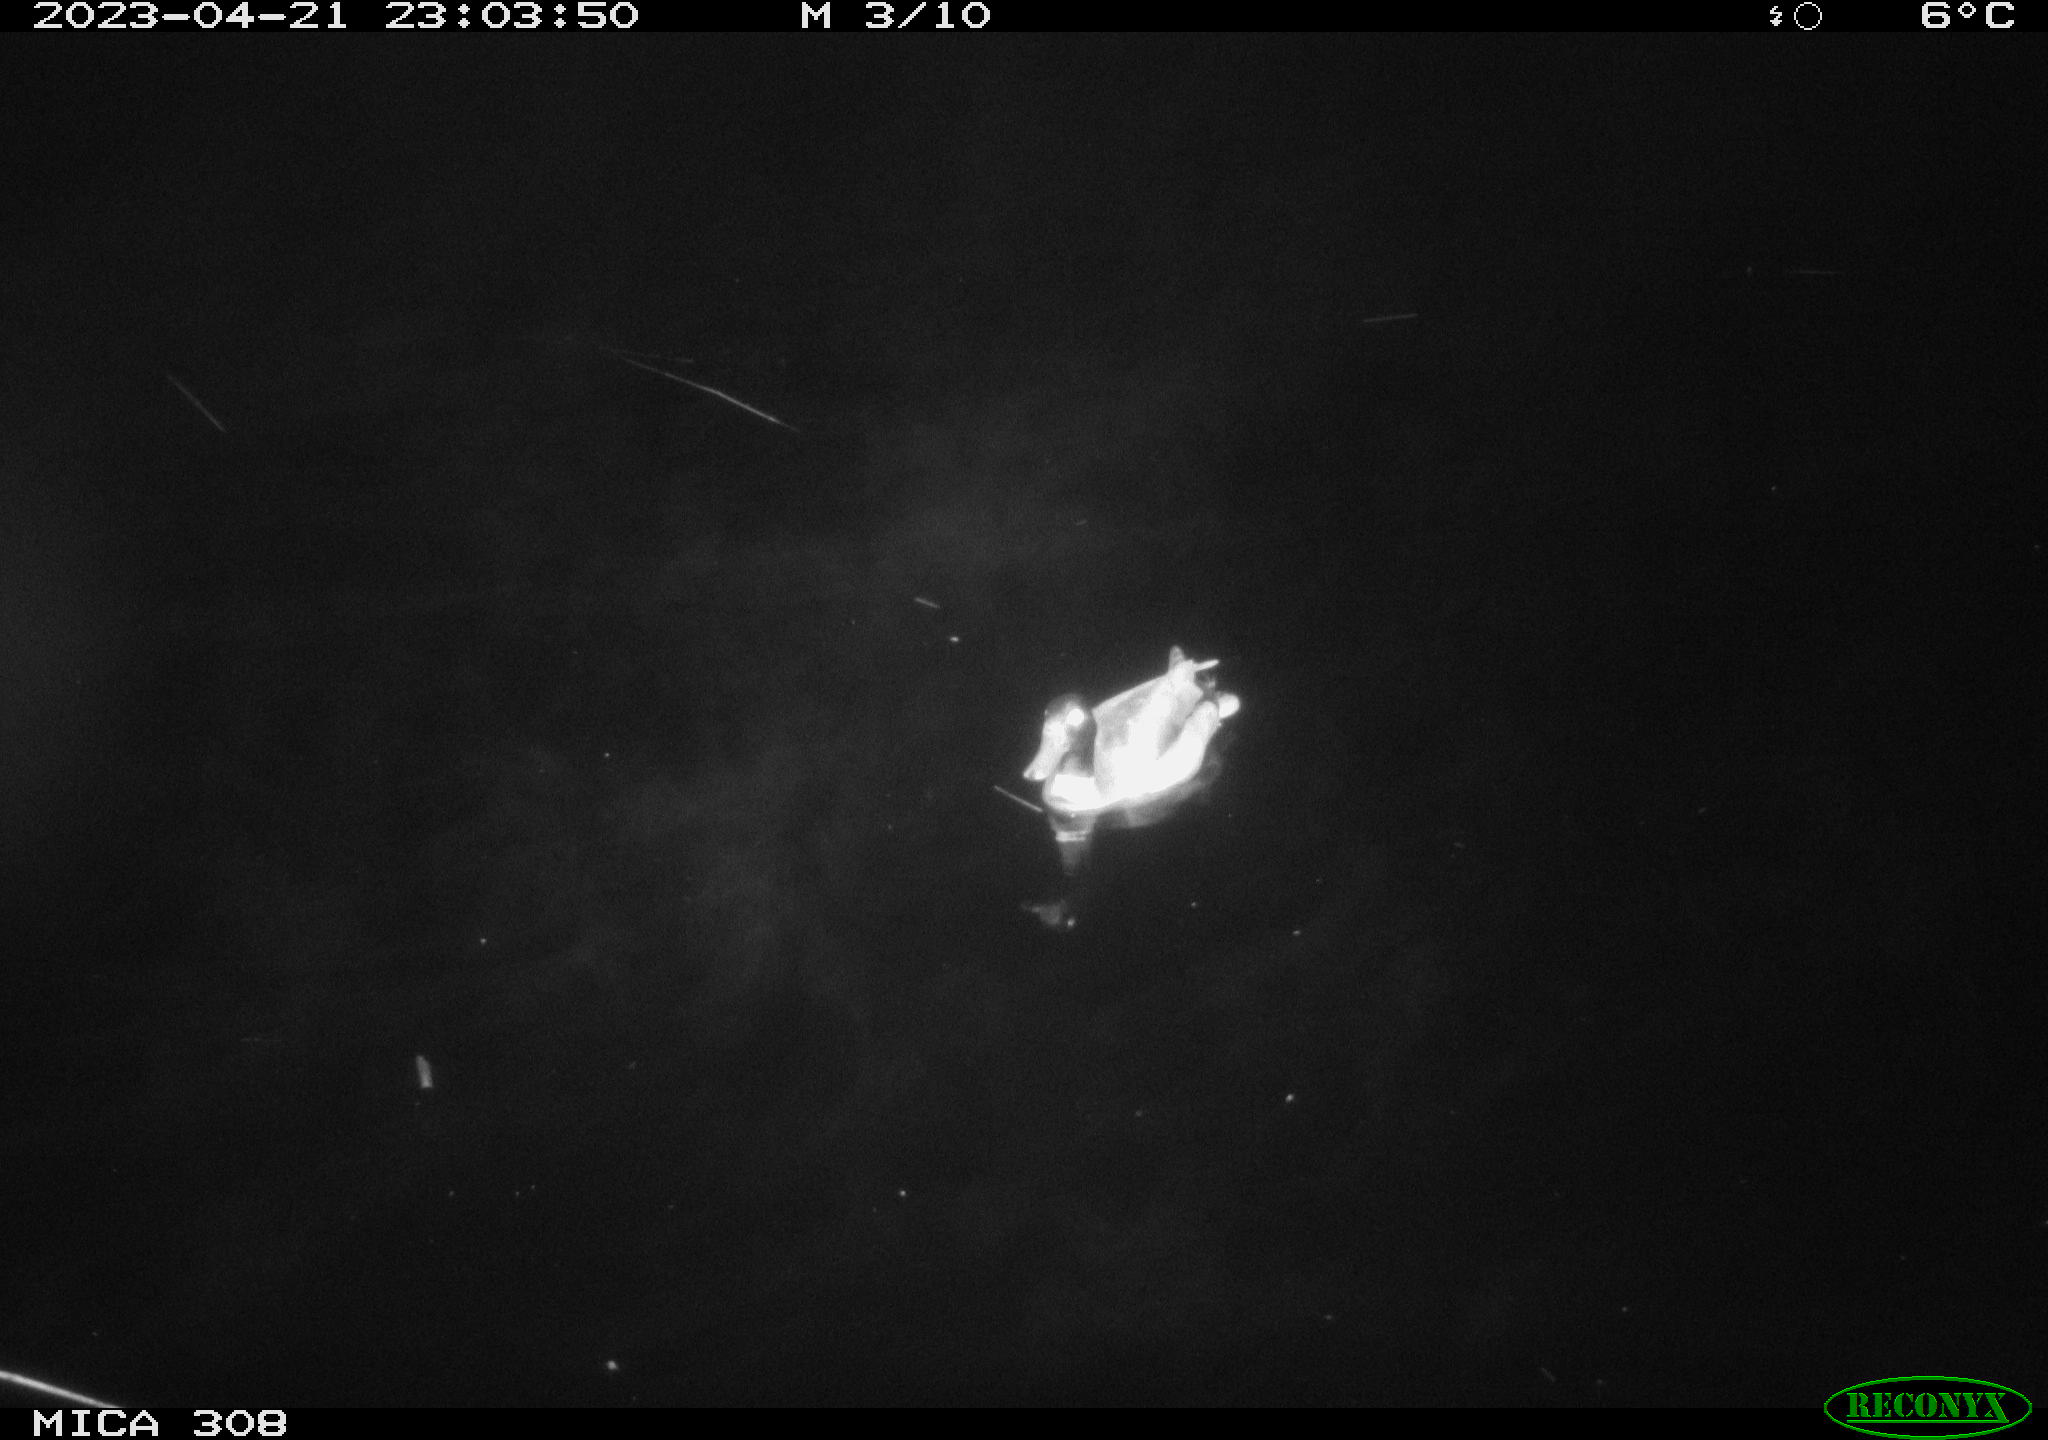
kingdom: Animalia
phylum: Chordata
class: Aves
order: Anseriformes
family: Anatidae
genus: Anas
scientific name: Anas
